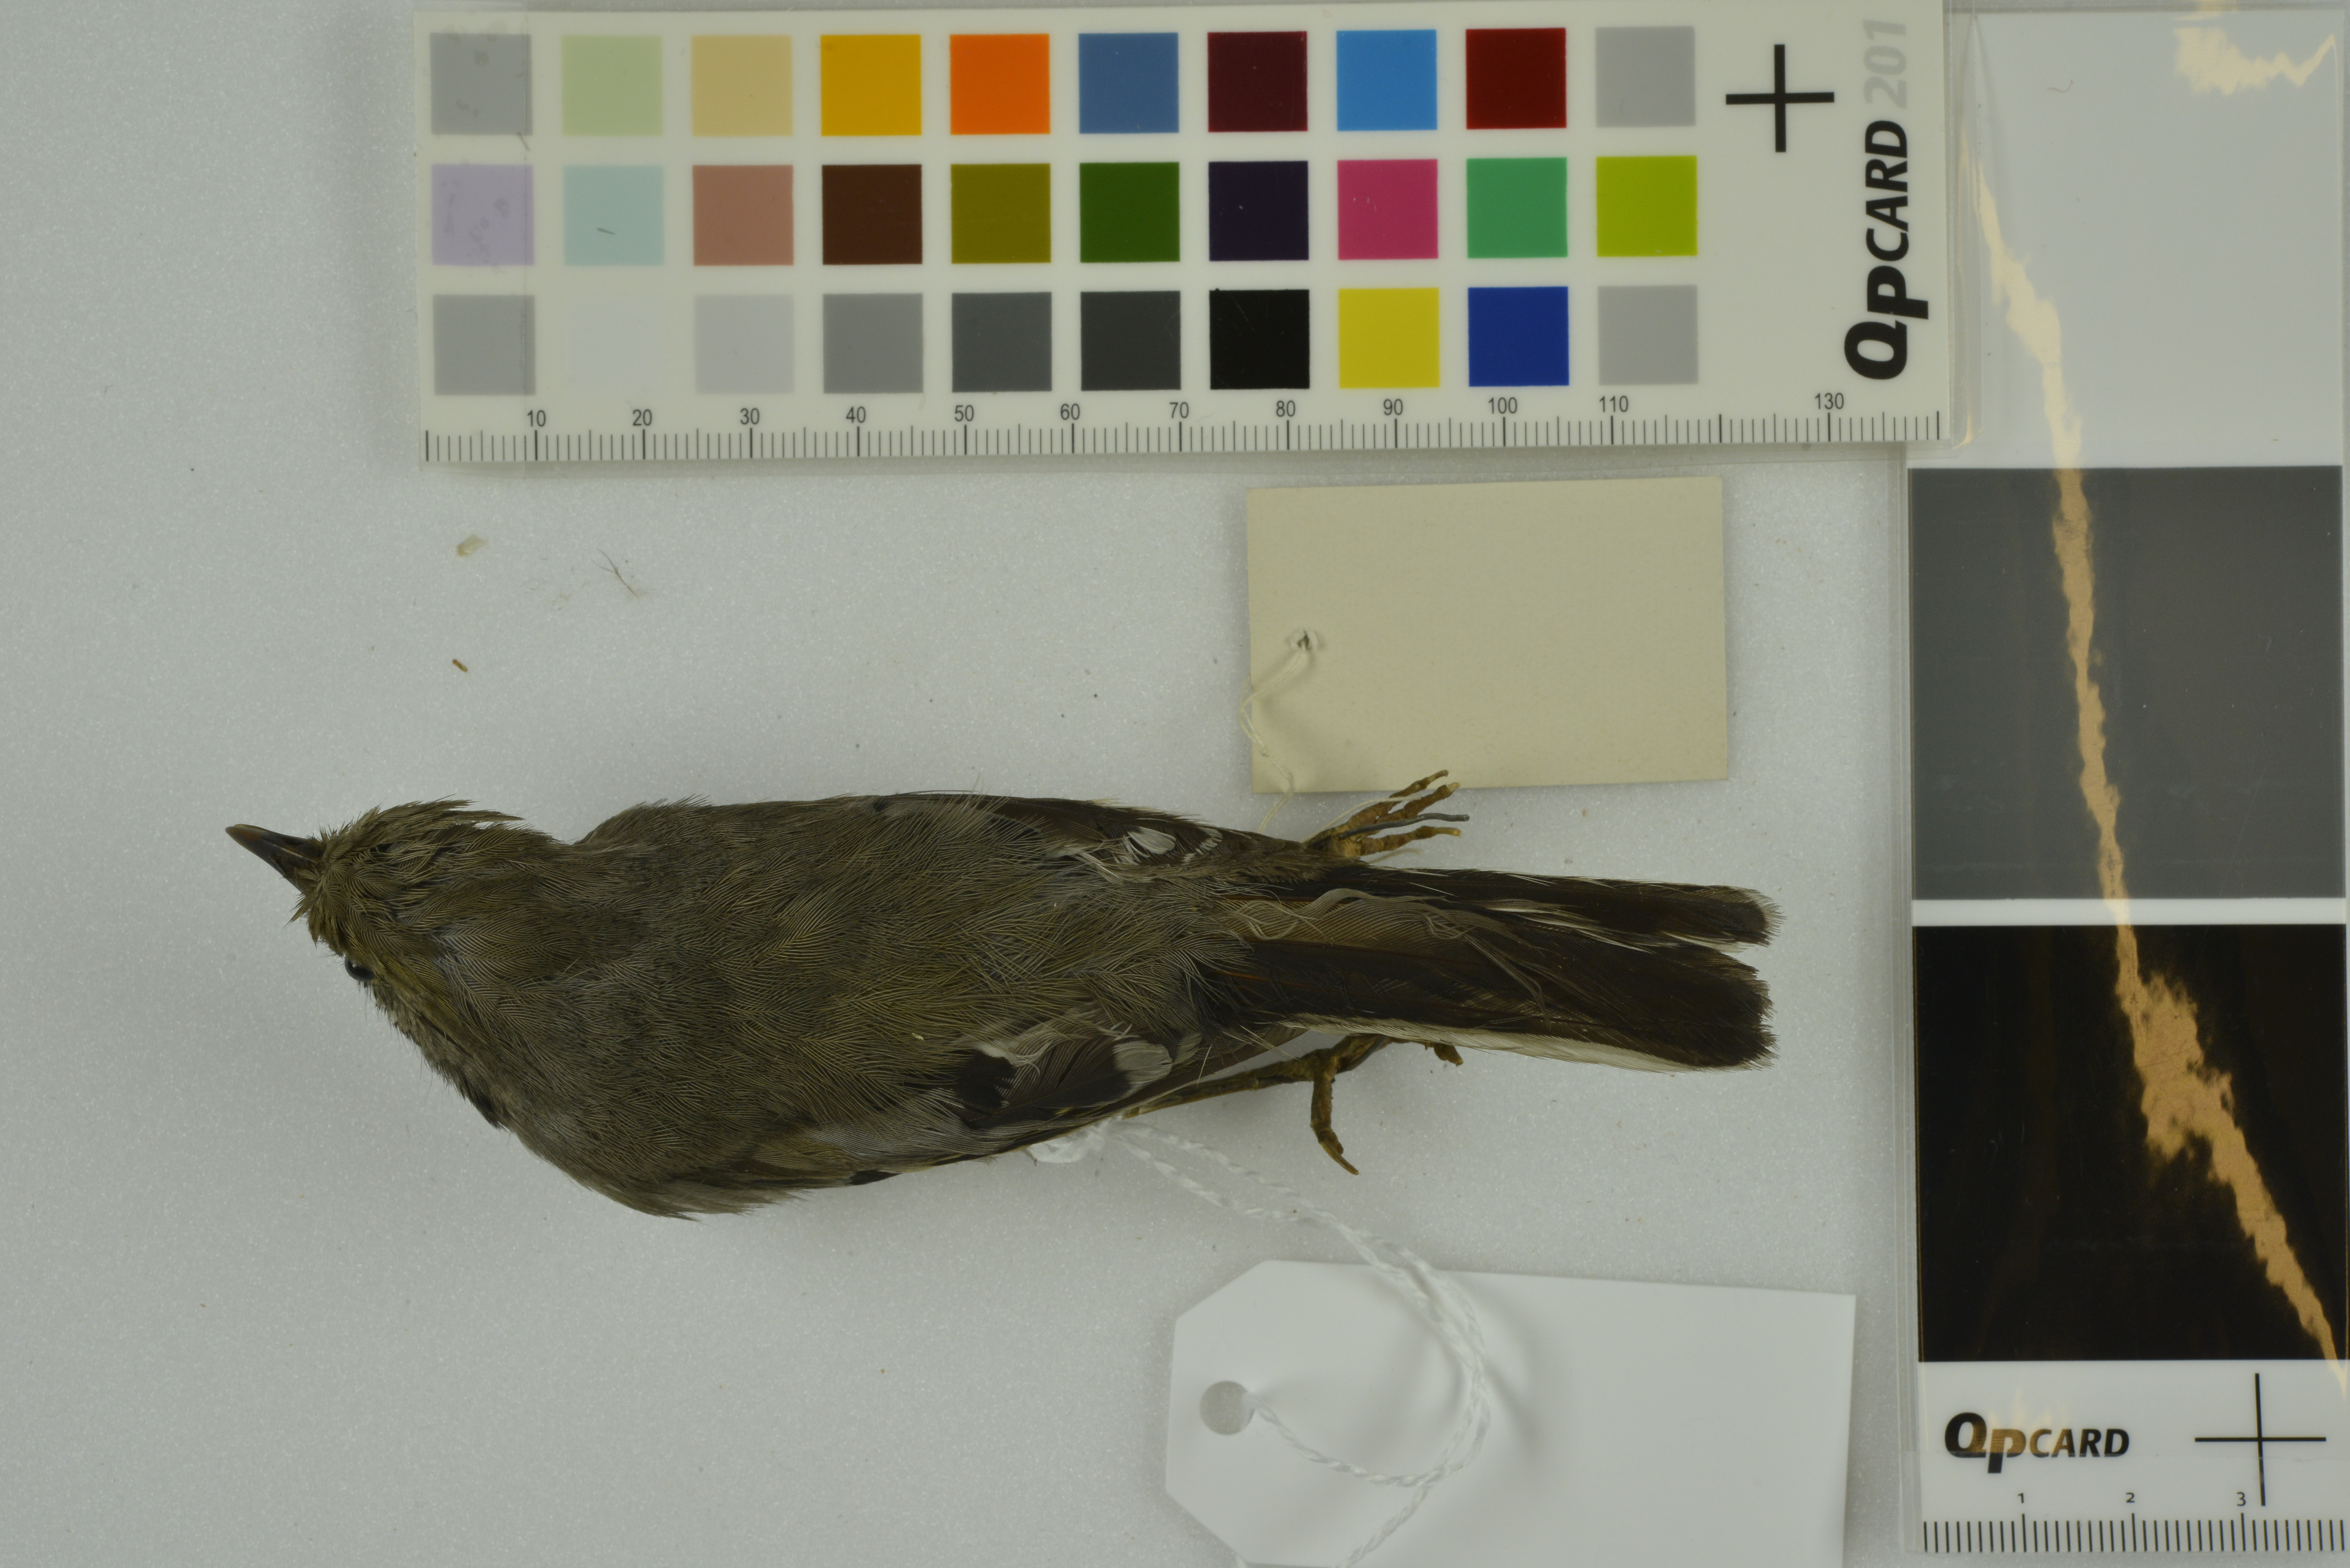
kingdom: Animalia
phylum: Chordata
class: Aves
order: Passeriformes
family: Leiothrichidae
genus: Minla
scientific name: Minla strigula
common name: Chestnut-tailed minla
